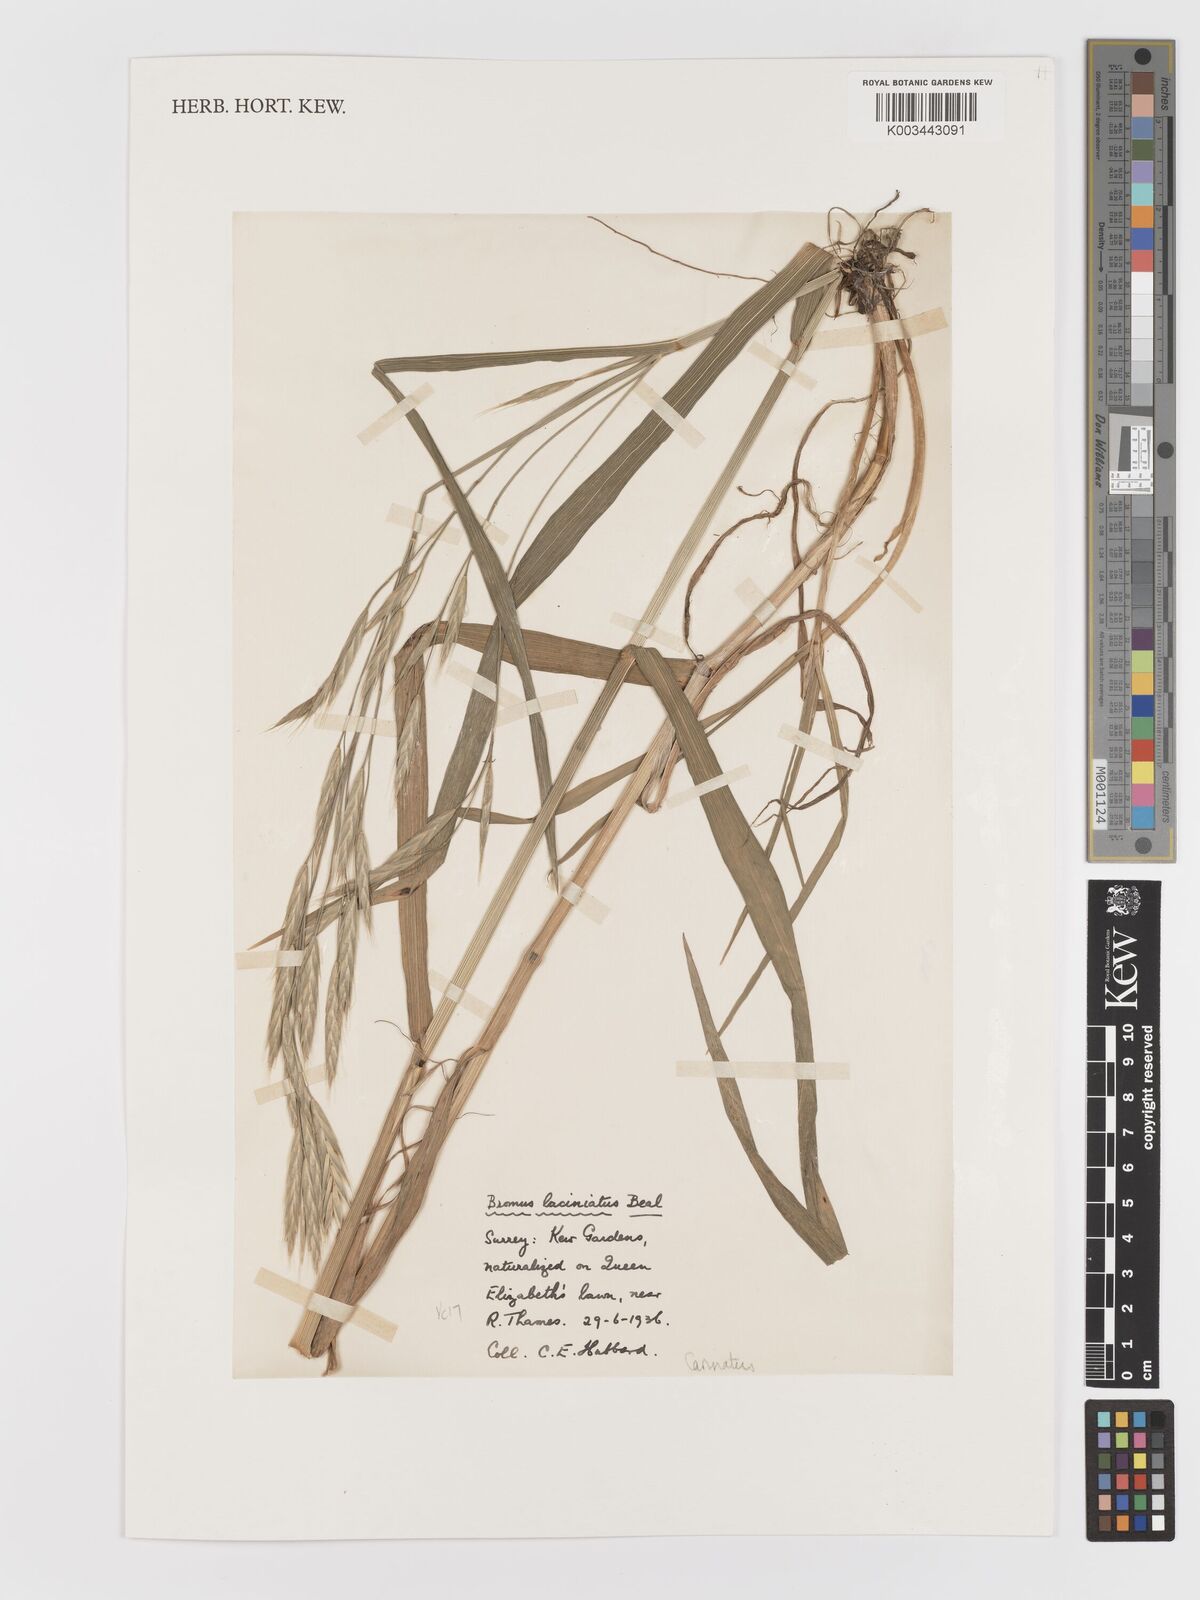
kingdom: Plantae
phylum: Tracheophyta
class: Liliopsida
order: Poales
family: Poaceae
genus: Bromus
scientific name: Bromus carinatus
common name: Mountain brome
